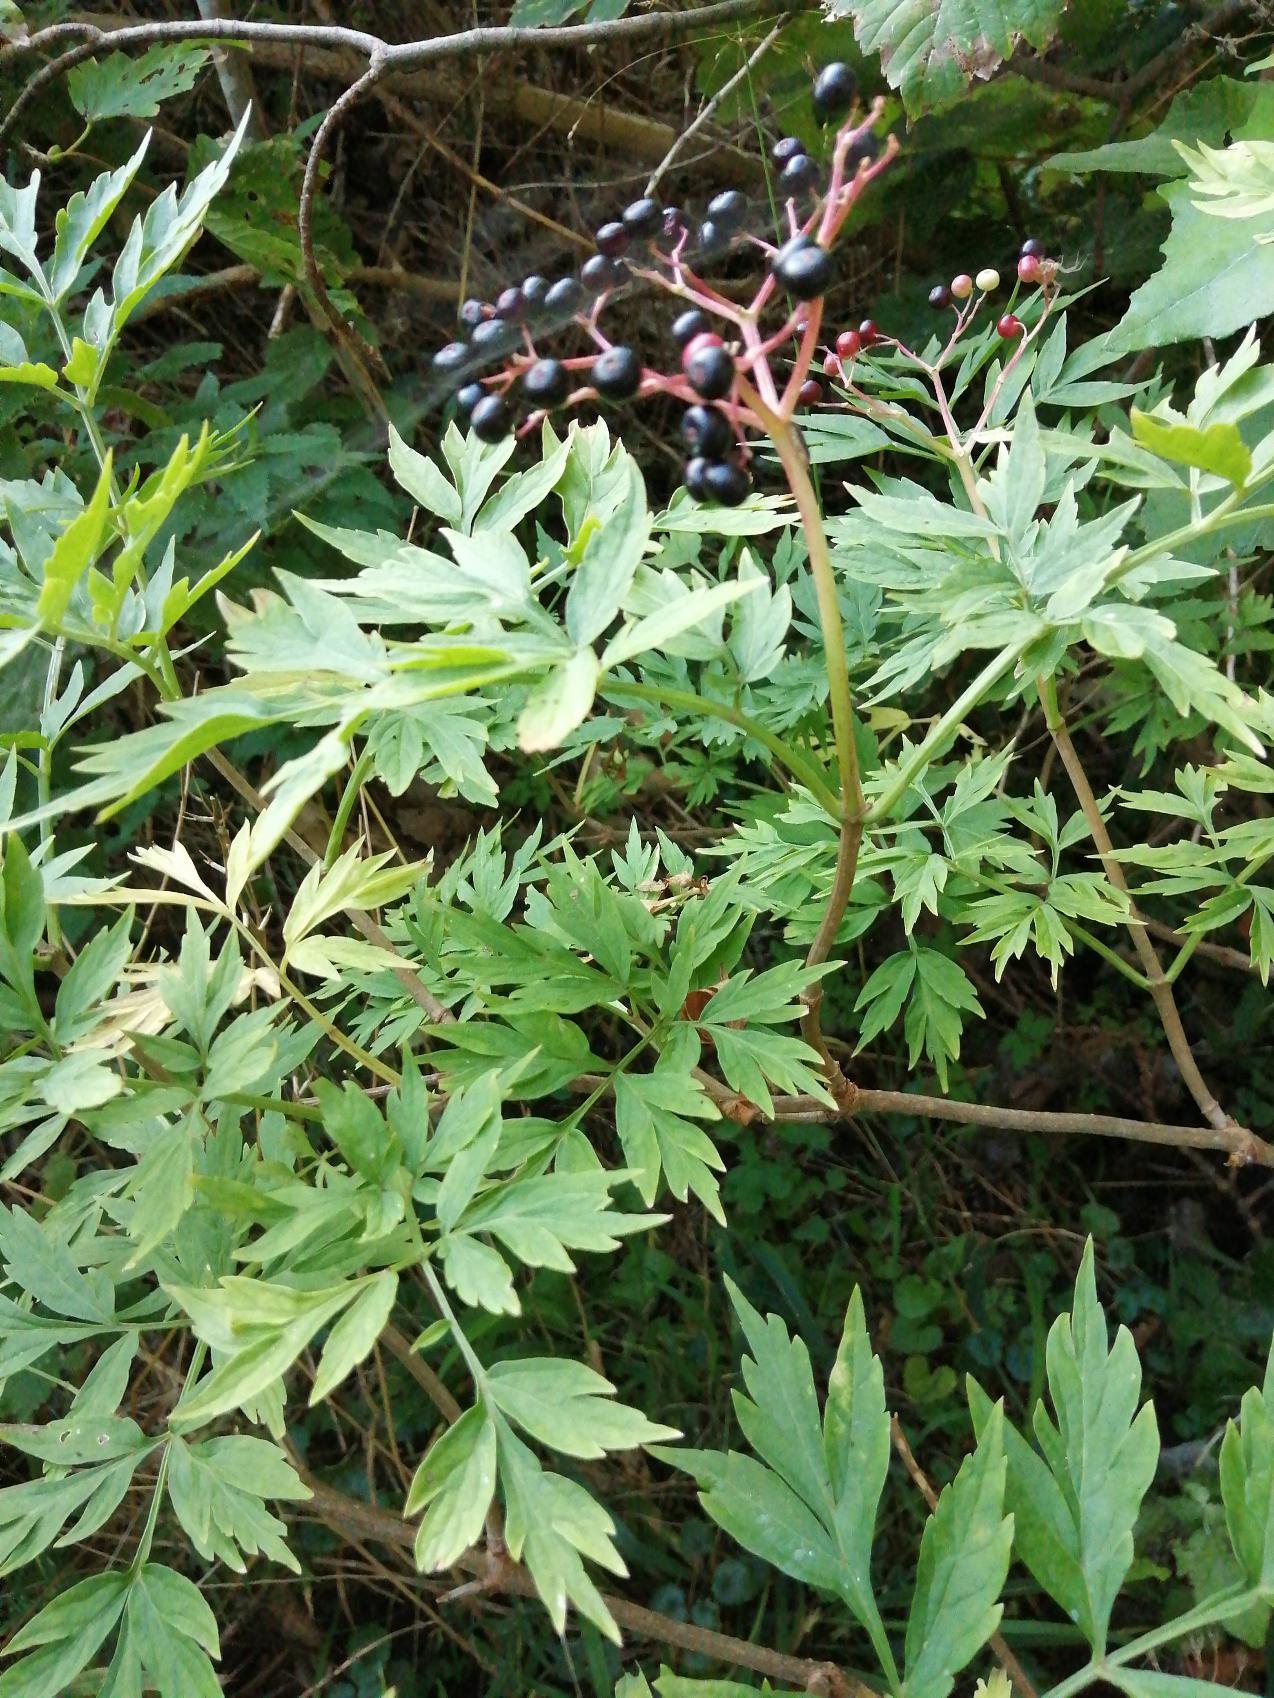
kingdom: Plantae
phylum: Tracheophyta
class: Magnoliopsida
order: Dipsacales
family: Viburnaceae
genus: Sambucus
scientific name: Sambucus nigra
